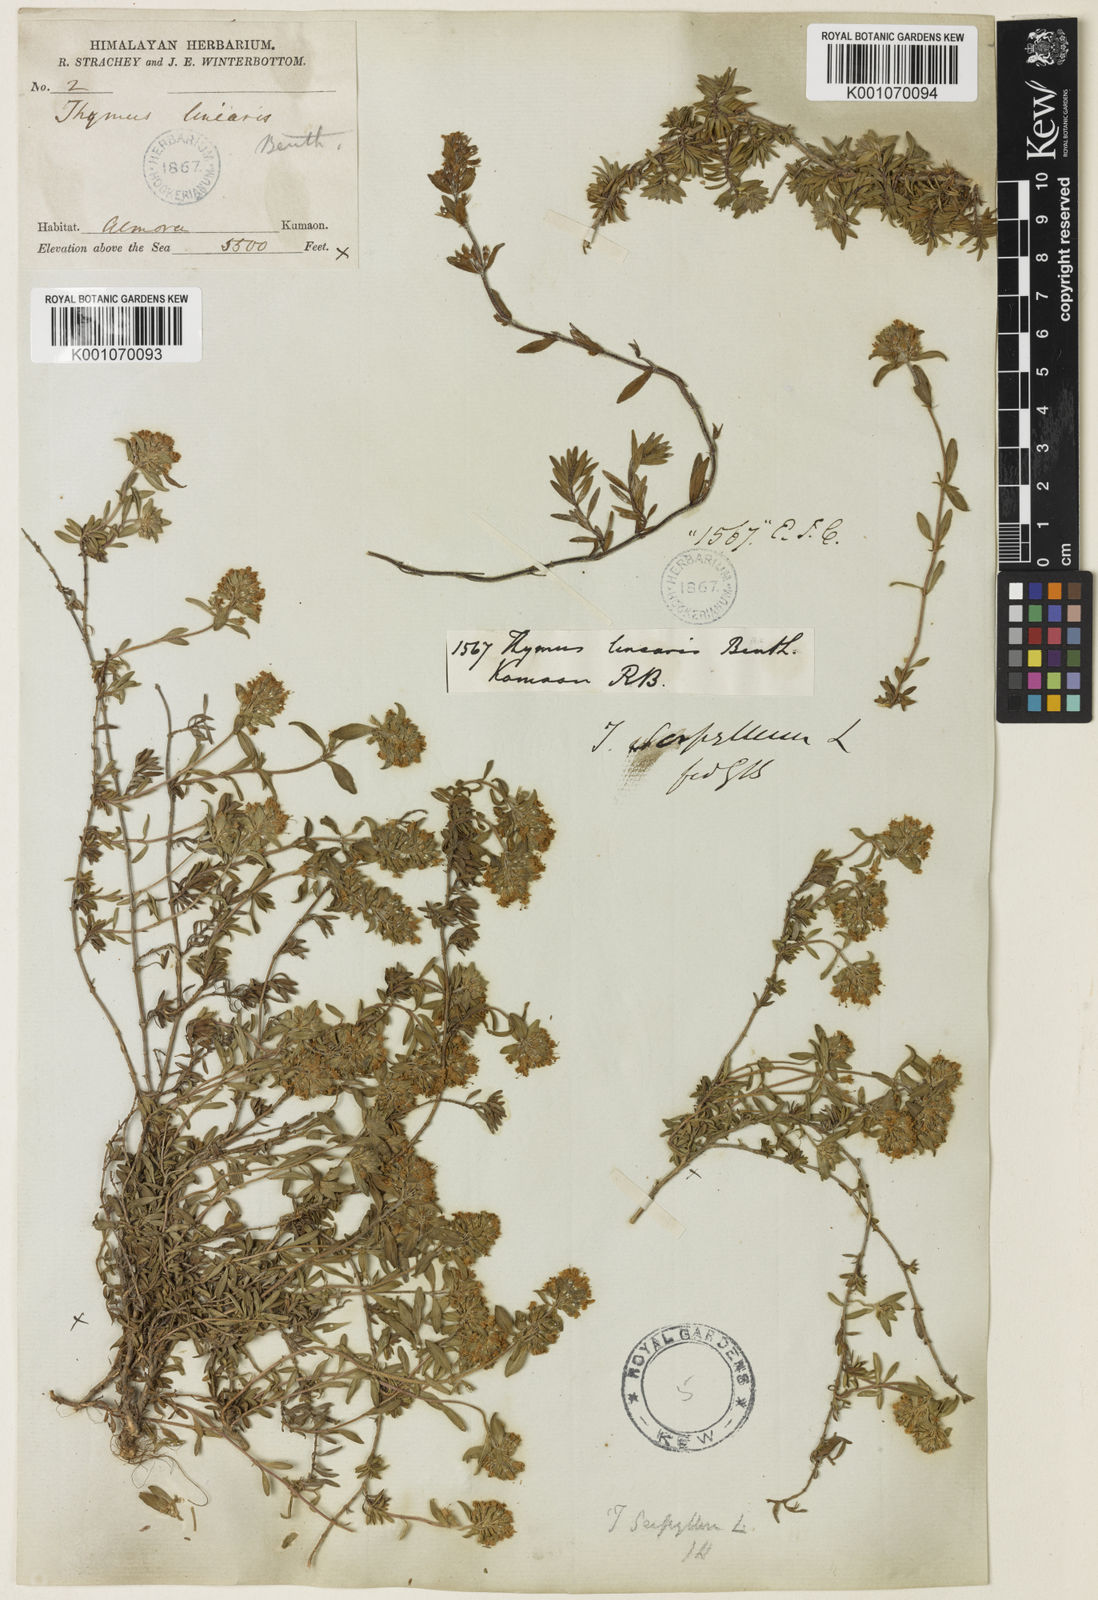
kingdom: Plantae
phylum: Tracheophyta
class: Magnoliopsida
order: Lamiales
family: Lamiaceae
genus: Thymus
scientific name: Thymus linearis
